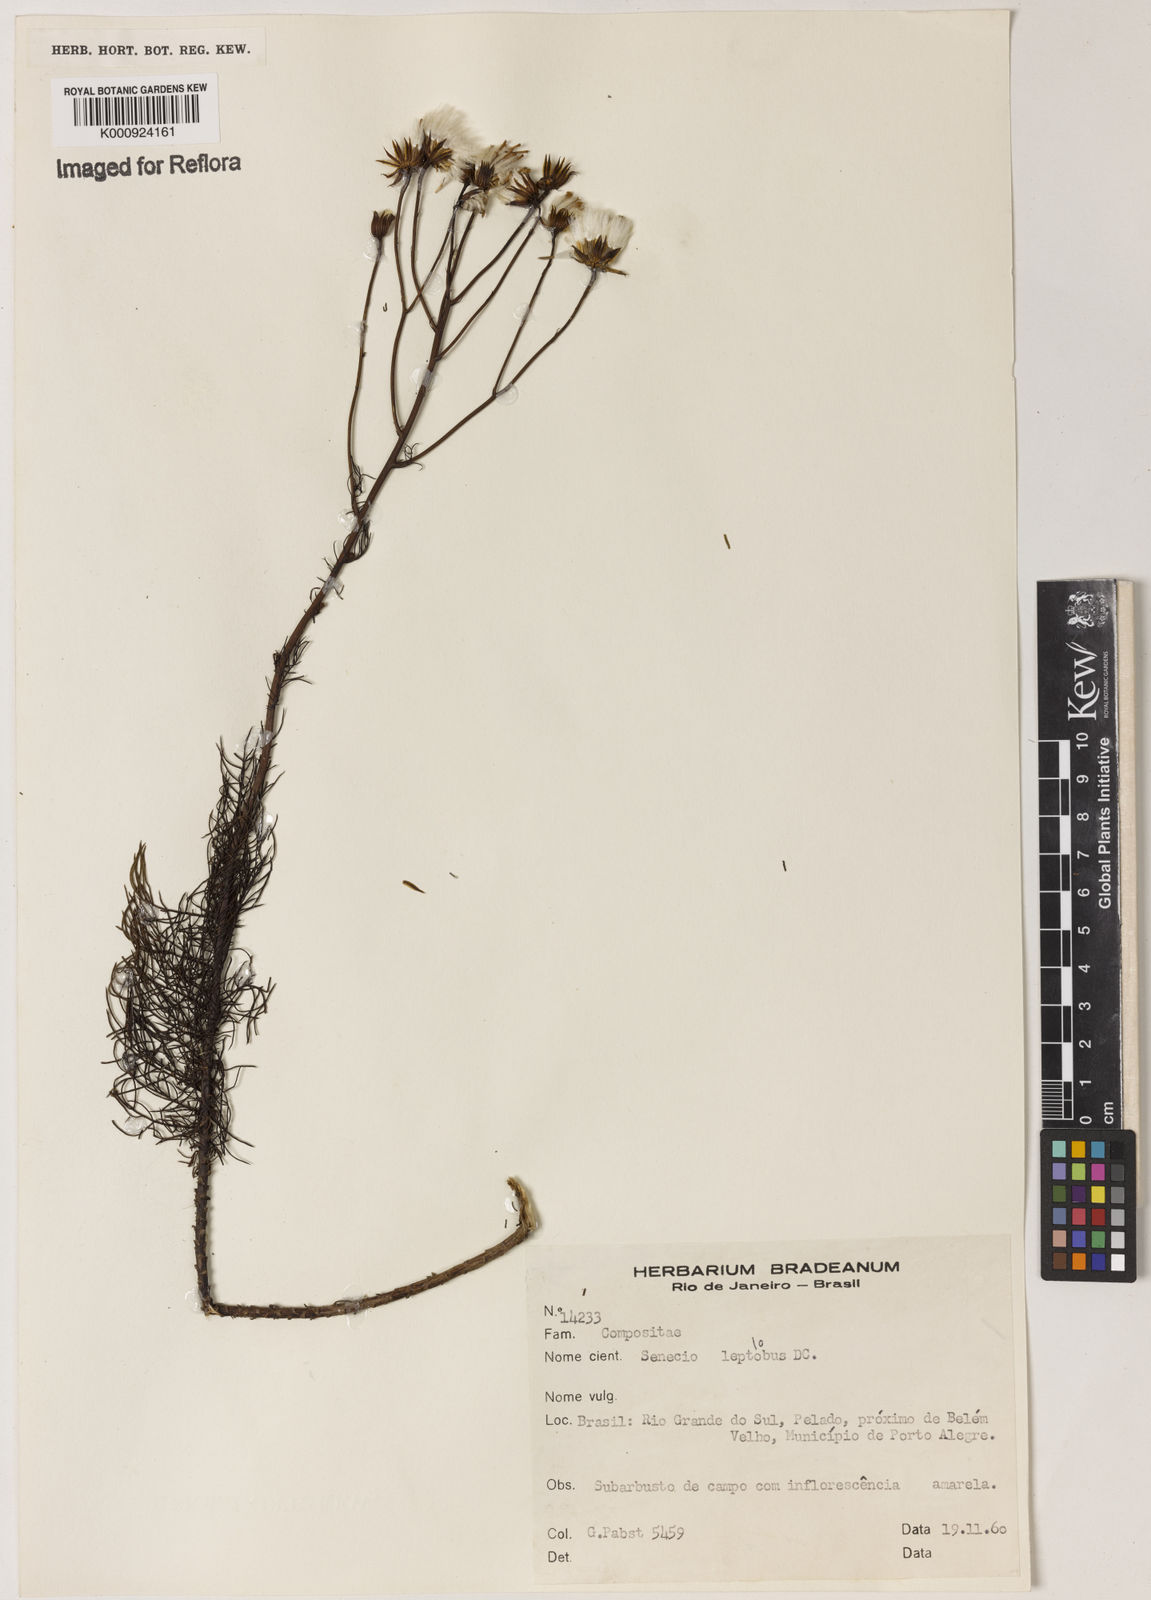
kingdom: Plantae
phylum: Tracheophyta
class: Magnoliopsida
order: Asterales
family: Asteraceae
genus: Senecio
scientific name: Senecio leptolobus
